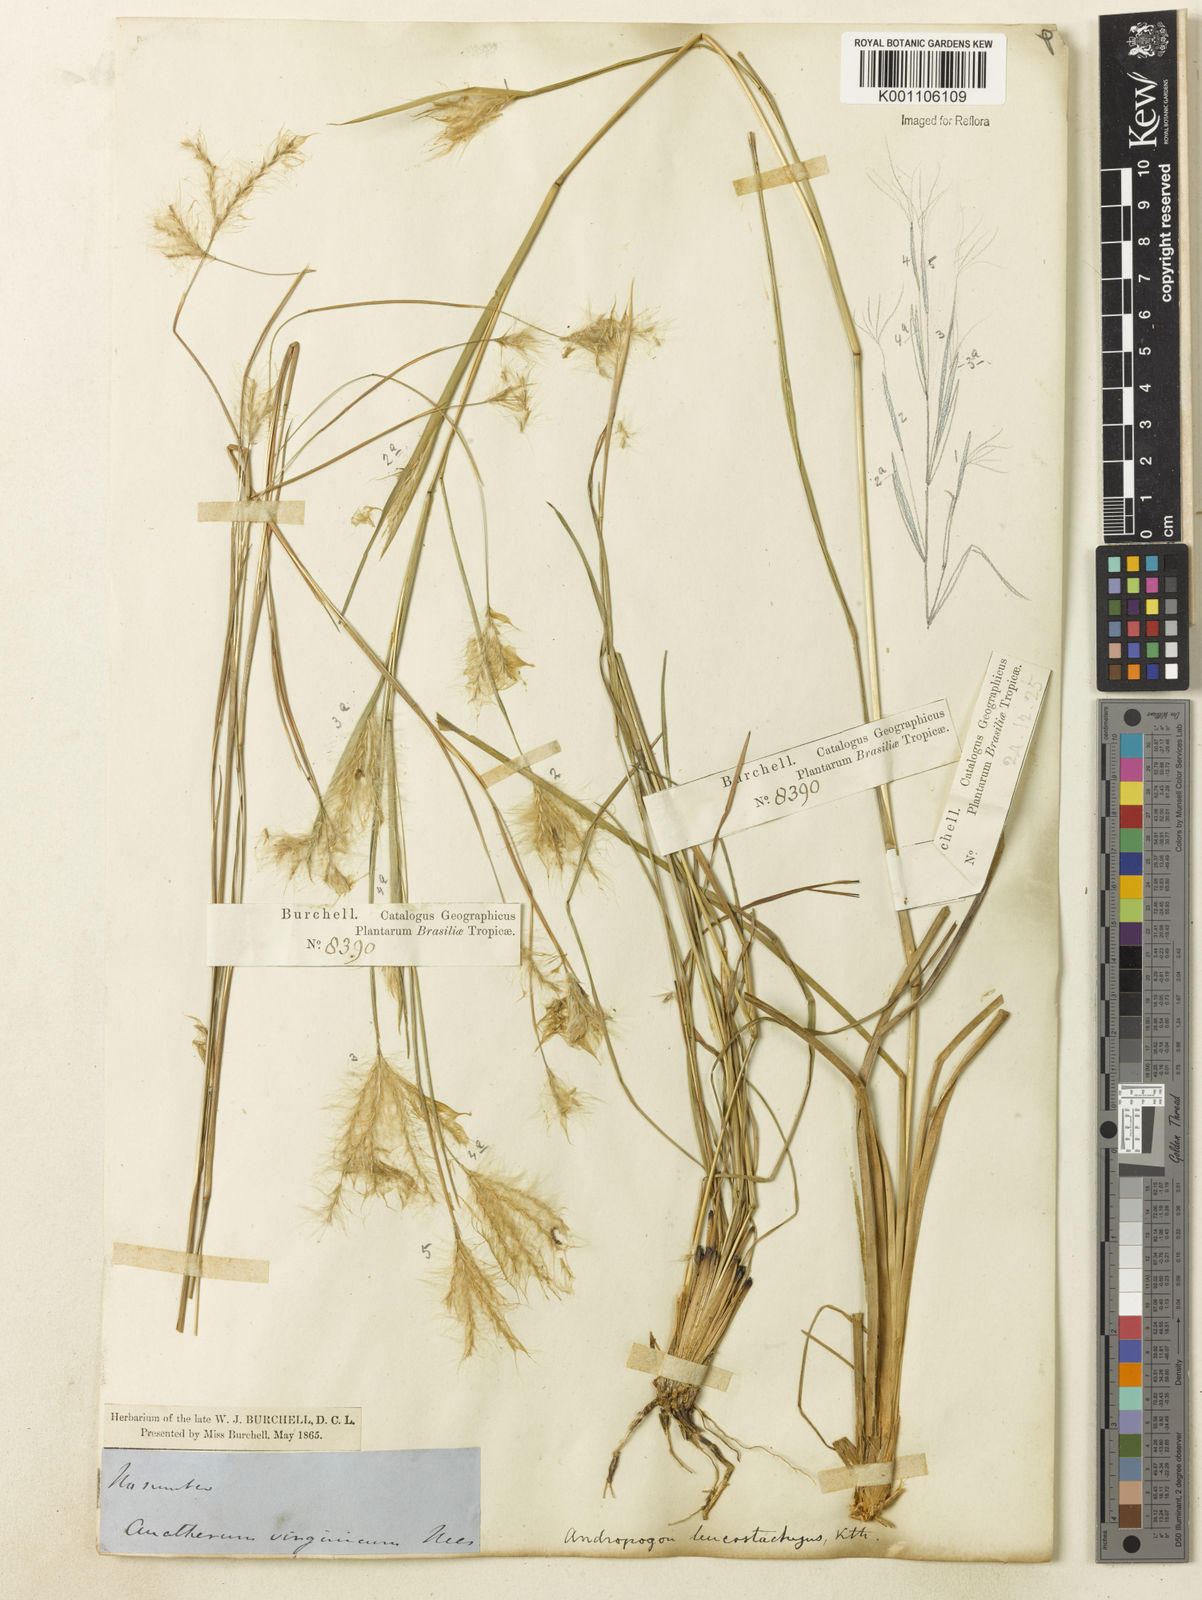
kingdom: Plantae
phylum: Tracheophyta
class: Liliopsida
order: Poales
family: Poaceae
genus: Andropogon
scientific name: Andropogon leucostachyus
